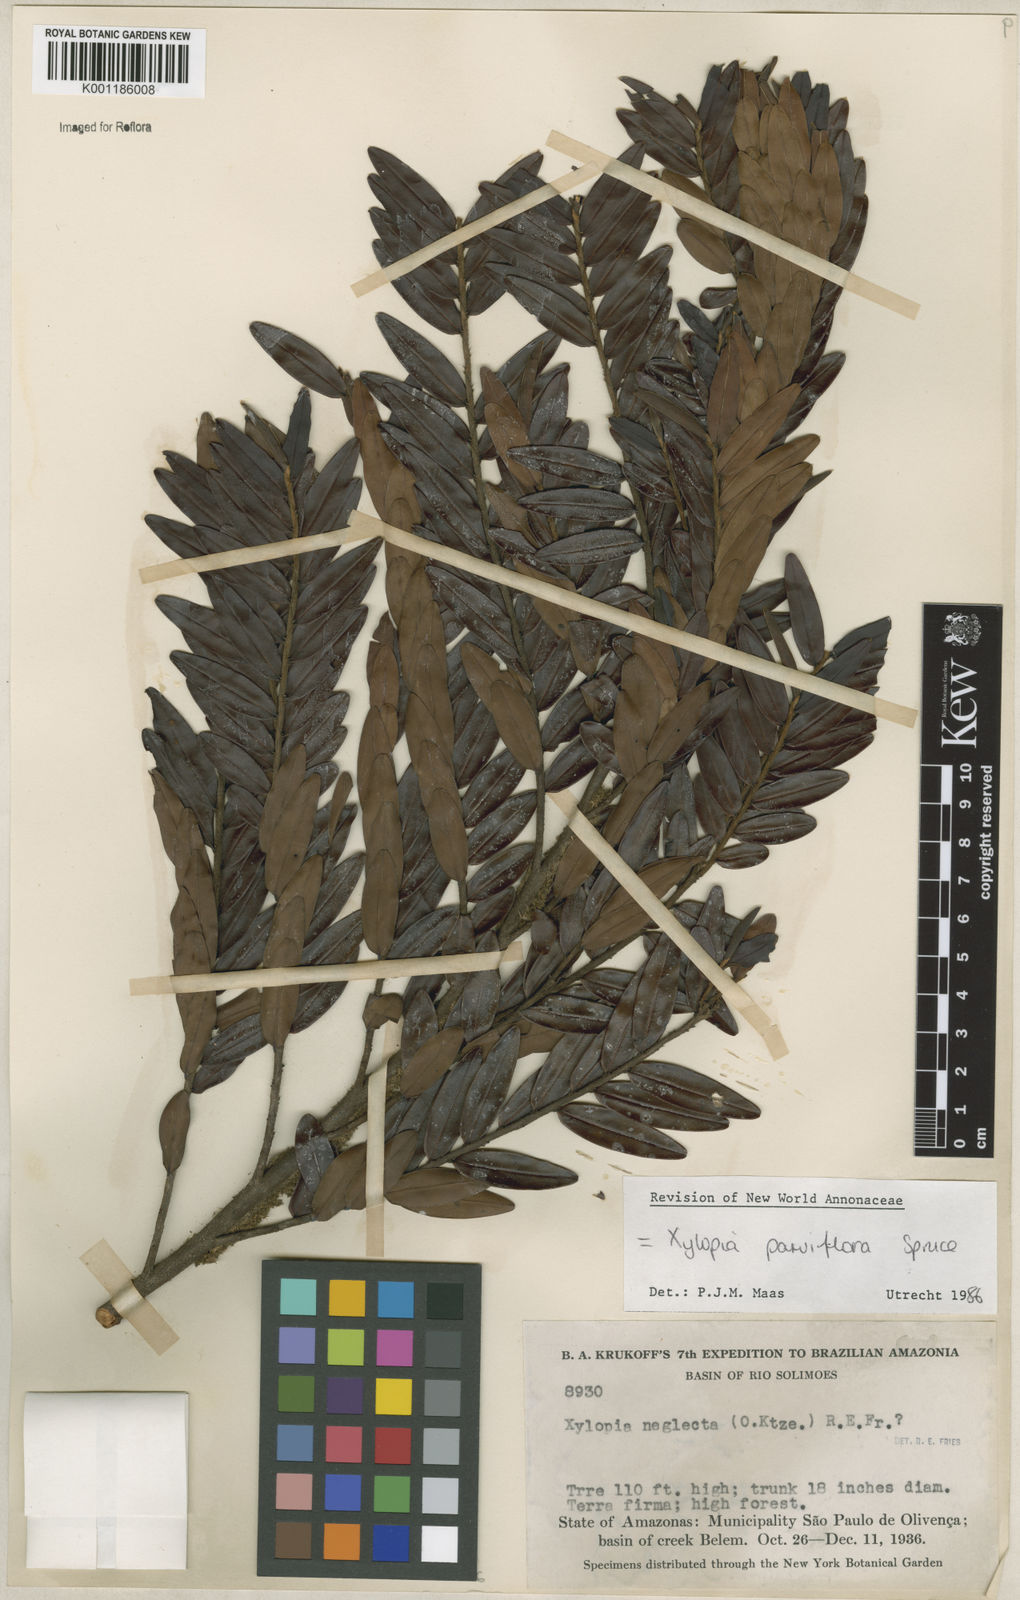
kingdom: Plantae
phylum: Tracheophyta
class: Magnoliopsida
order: Magnoliales
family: Annonaceae
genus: Xylopia
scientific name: Xylopia neglecta
